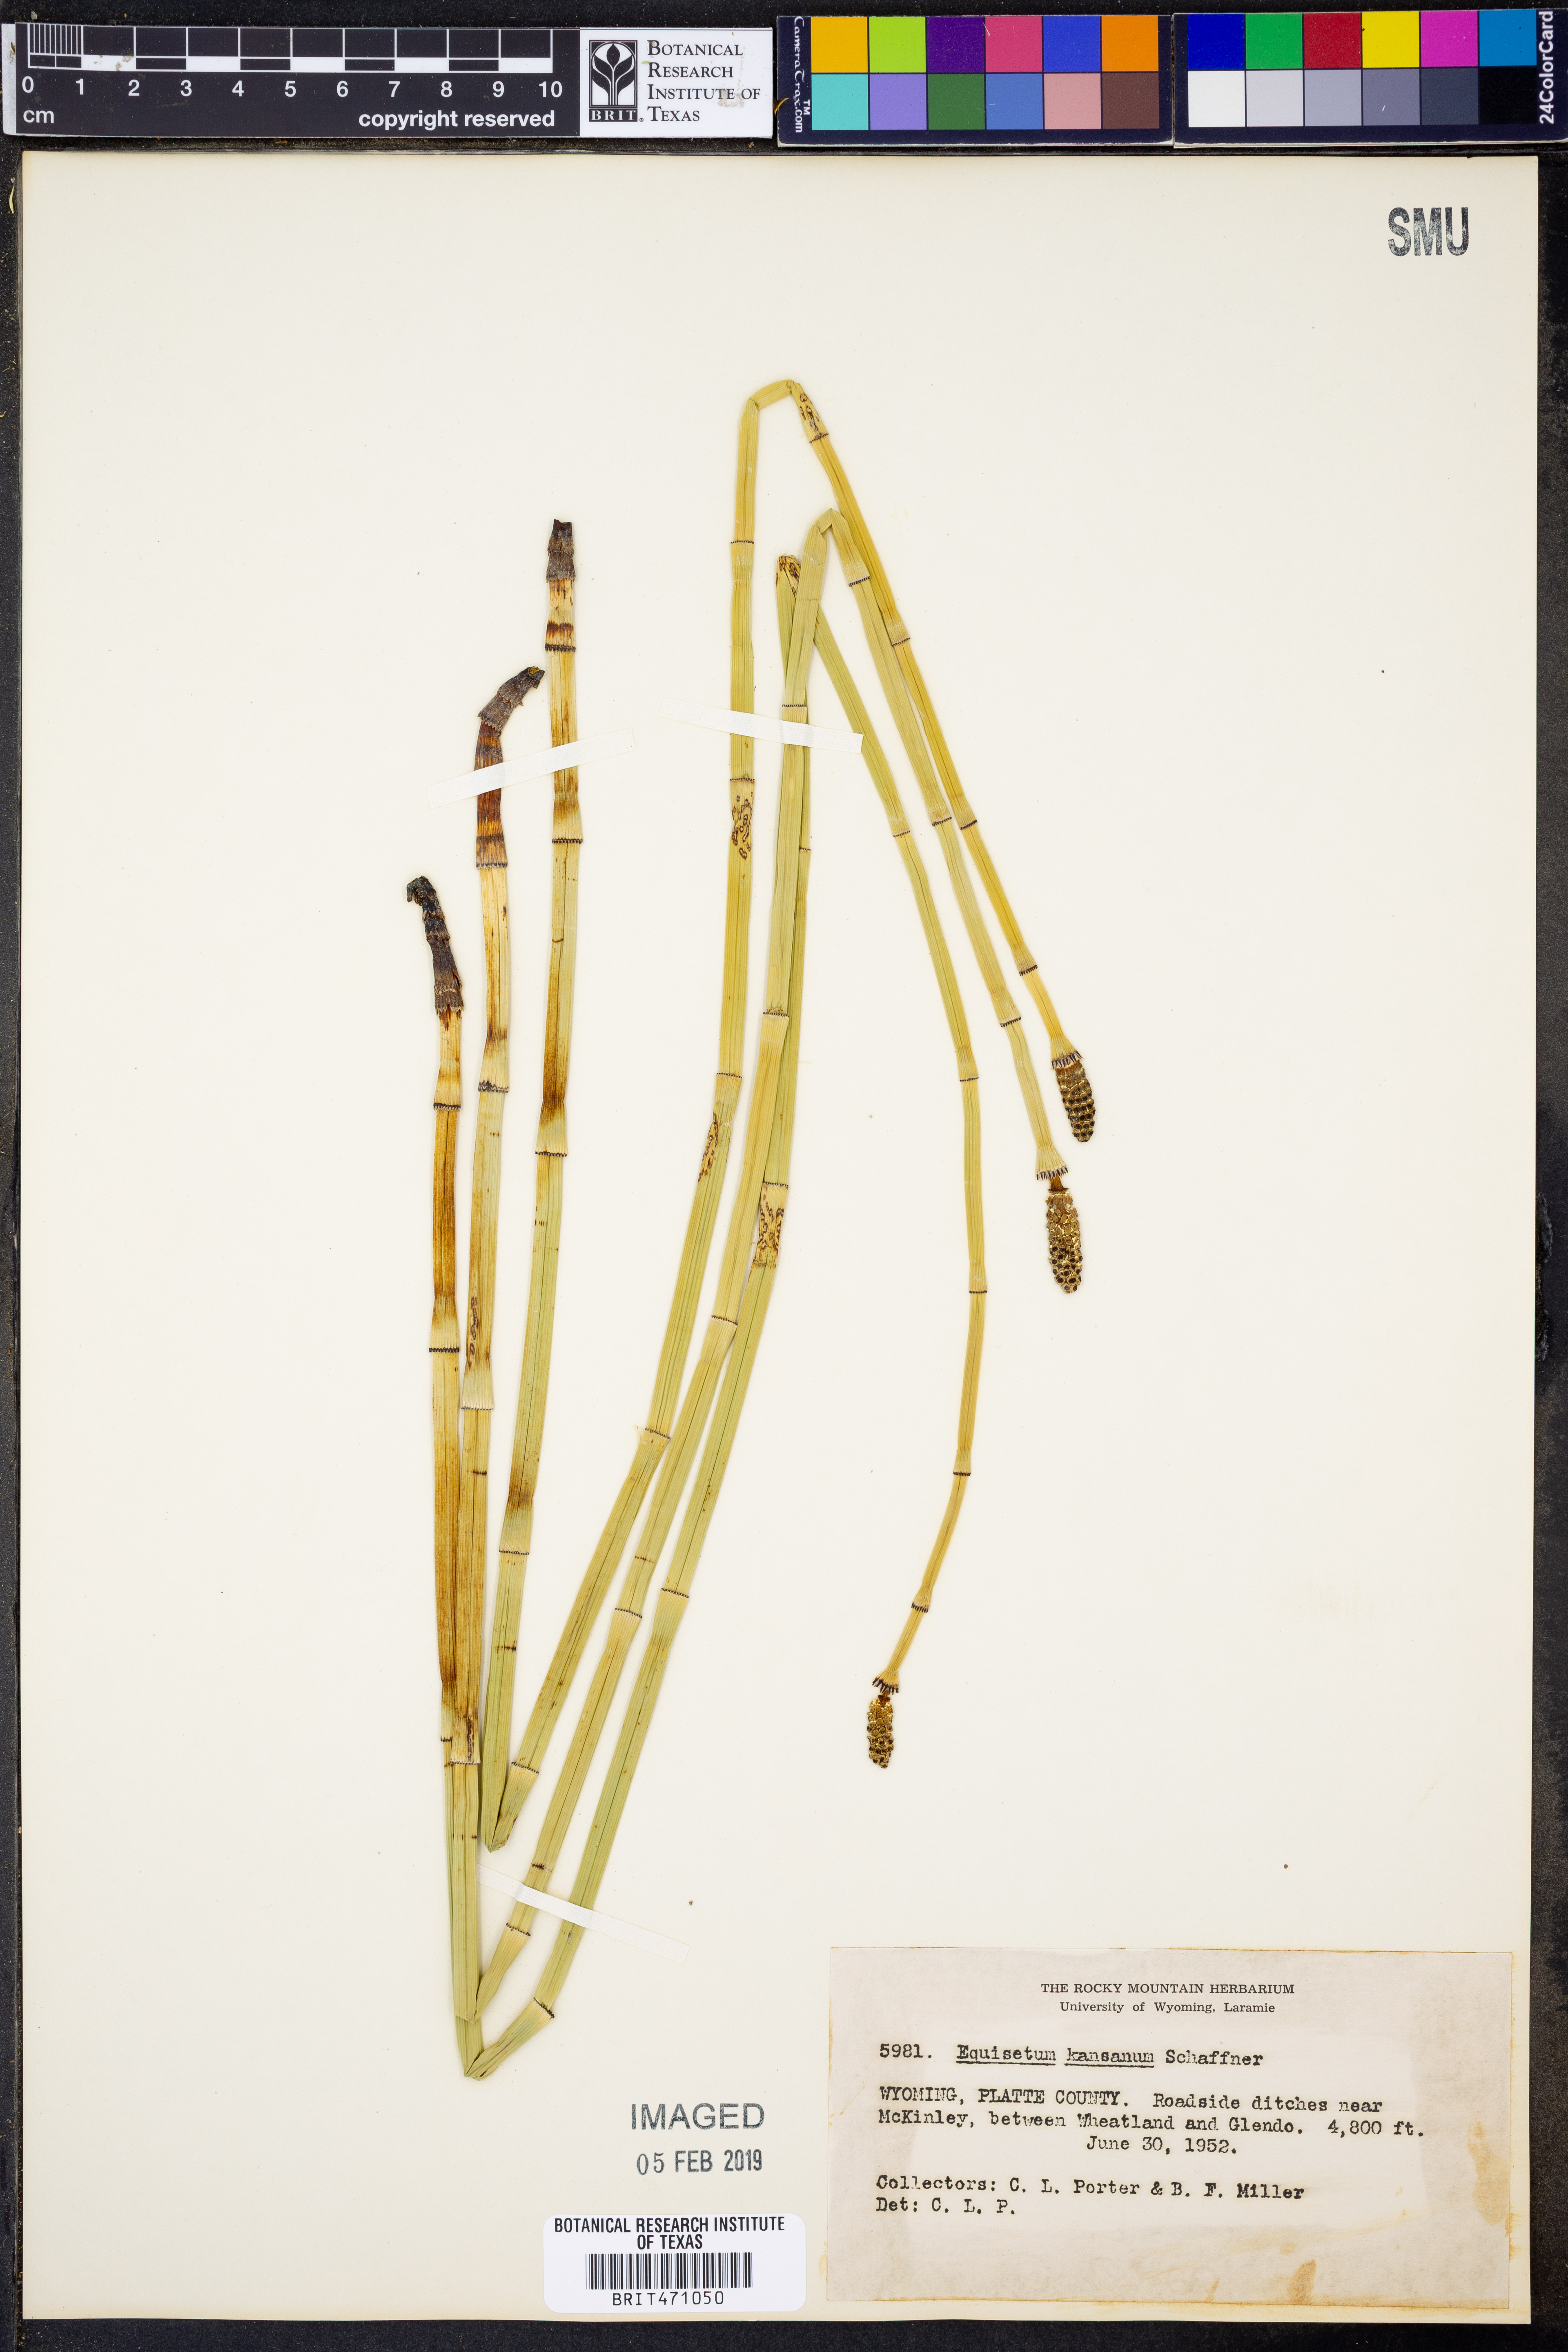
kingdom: Plantae
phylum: Tracheophyta
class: Polypodiopsida
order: Equisetales
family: Equisetaceae
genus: Equisetum
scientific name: Equisetum laevigatum
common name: Smooth scouring-rush
